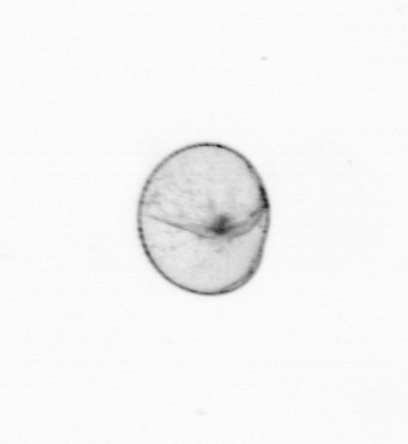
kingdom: Chromista
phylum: Myzozoa
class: Dinophyceae
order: Noctilucales
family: Noctilucaceae
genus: Noctiluca
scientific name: Noctiluca scintillans
